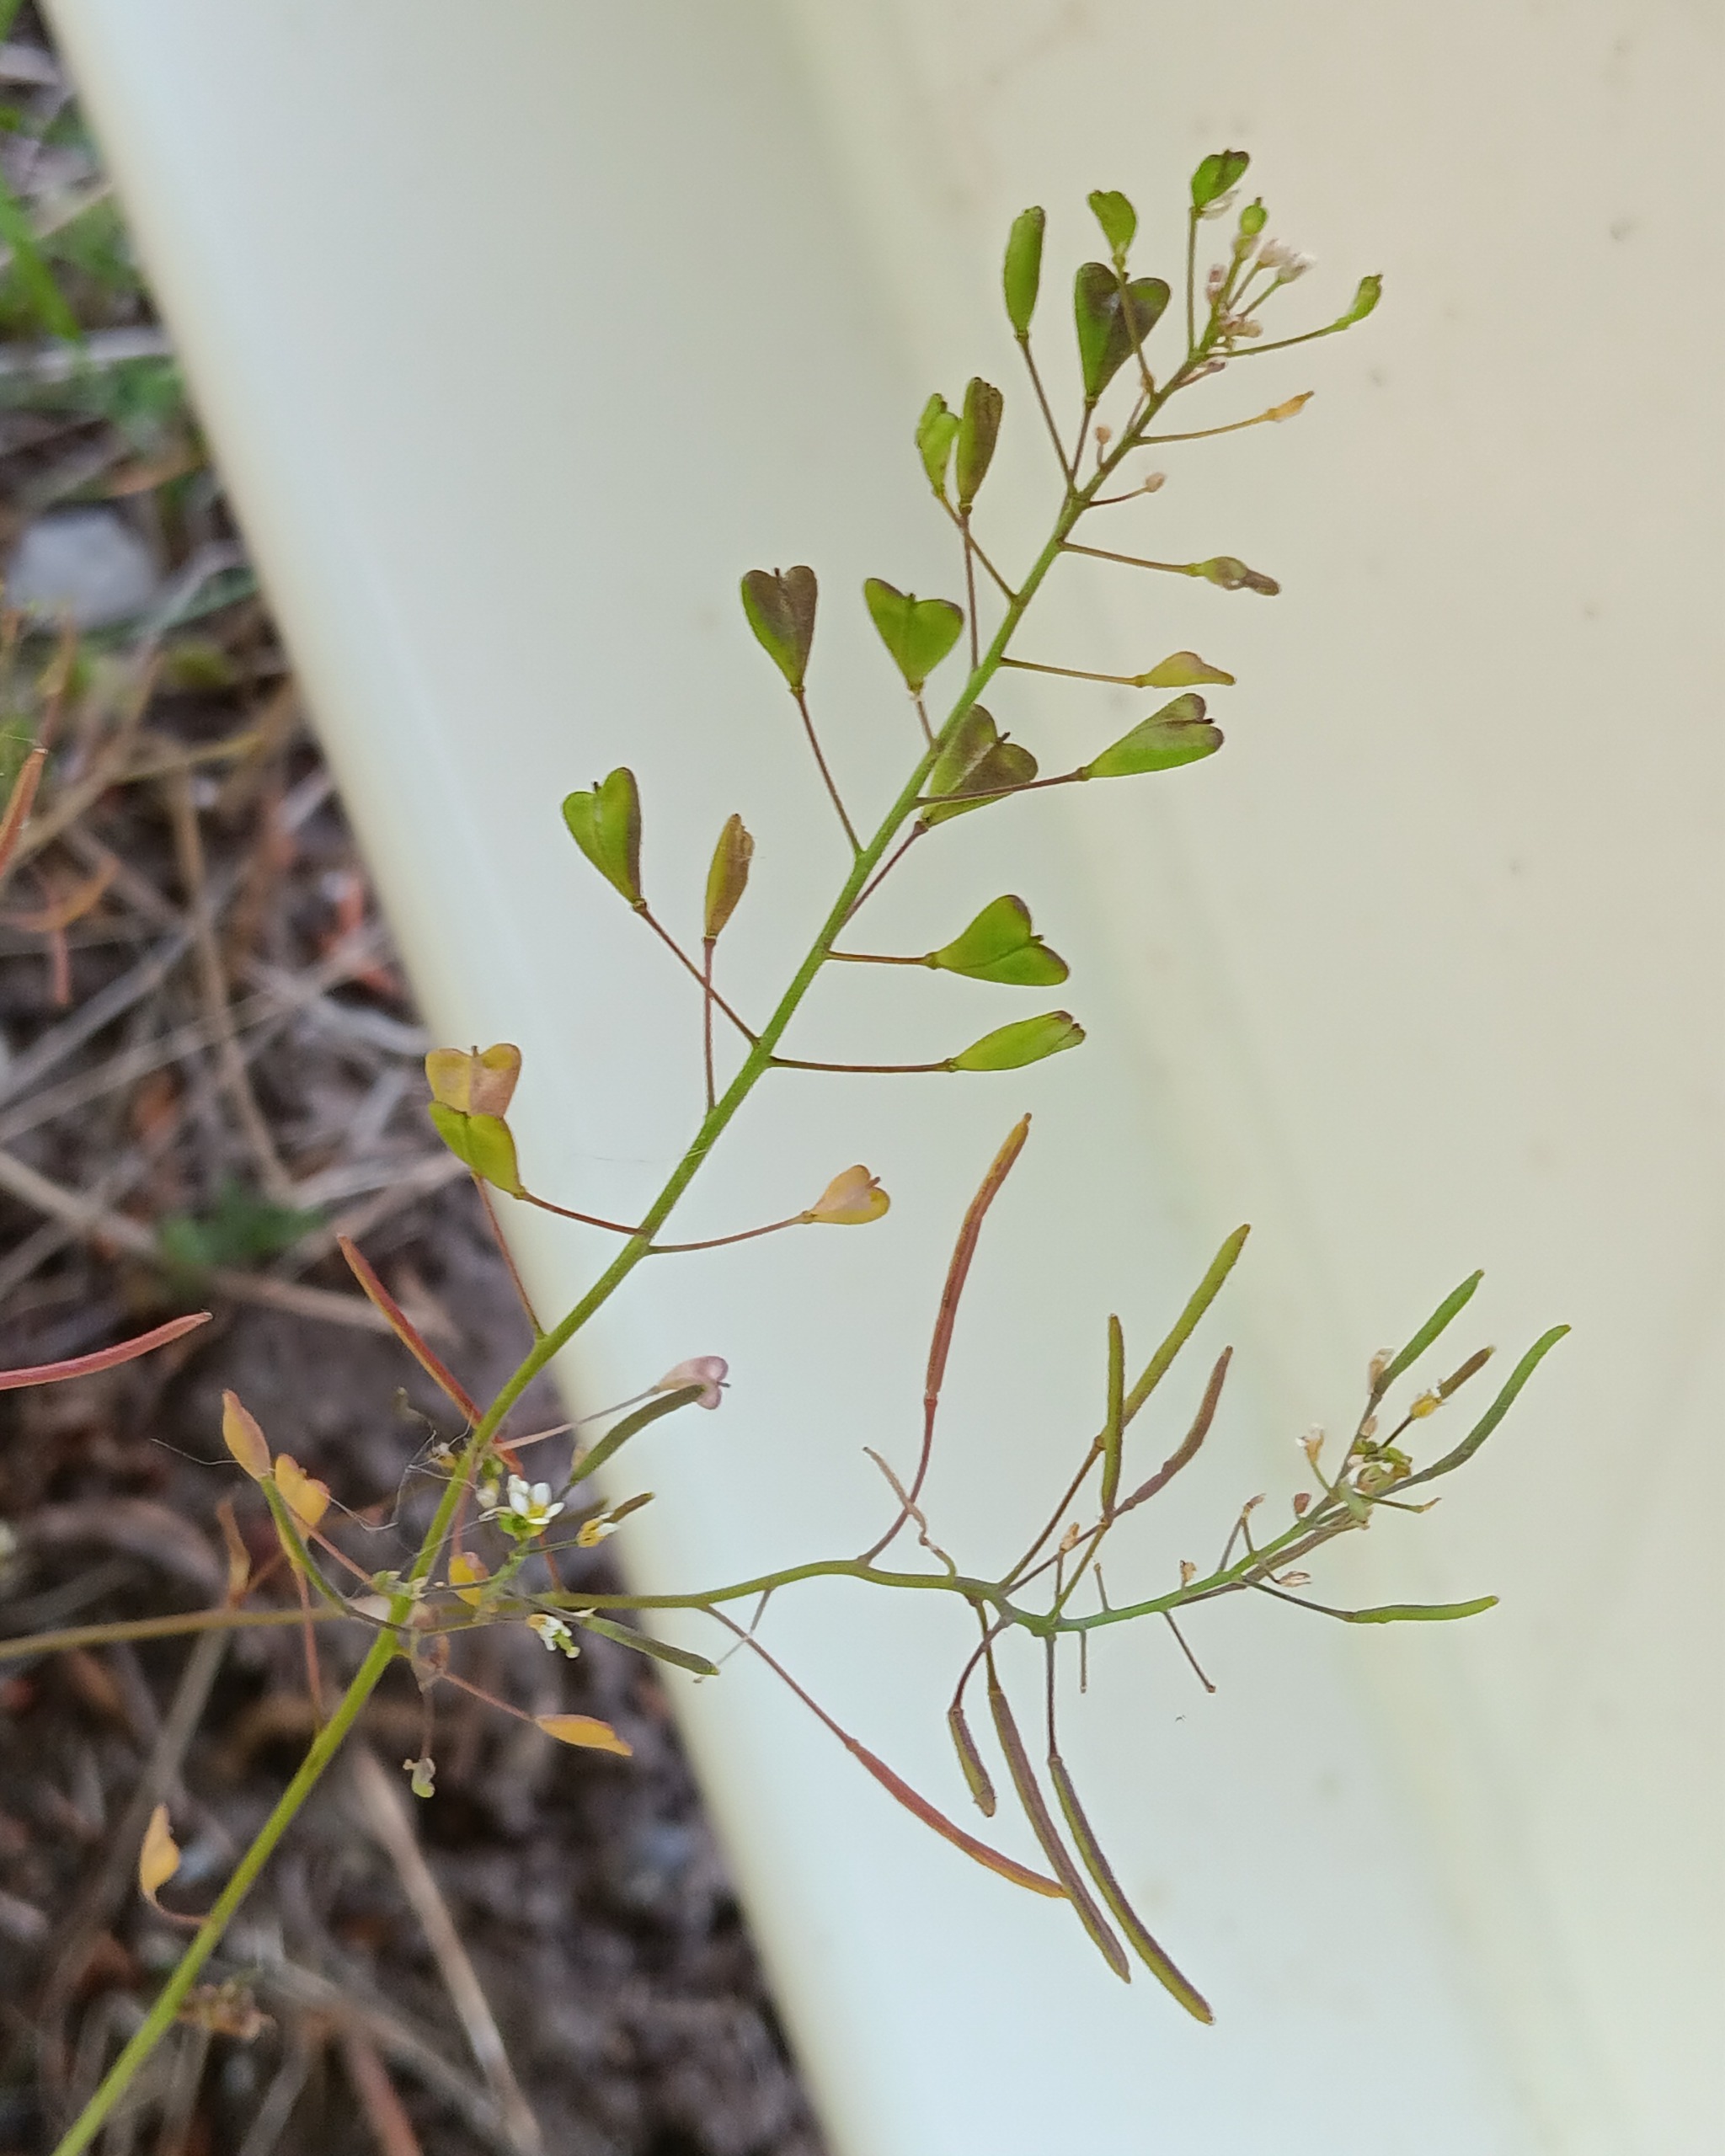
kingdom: Plantae
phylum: Tracheophyta
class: Magnoliopsida
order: Brassicales
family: Brassicaceae
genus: Capsella
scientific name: Capsella bursa-pastoris
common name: Hyrdetaske
